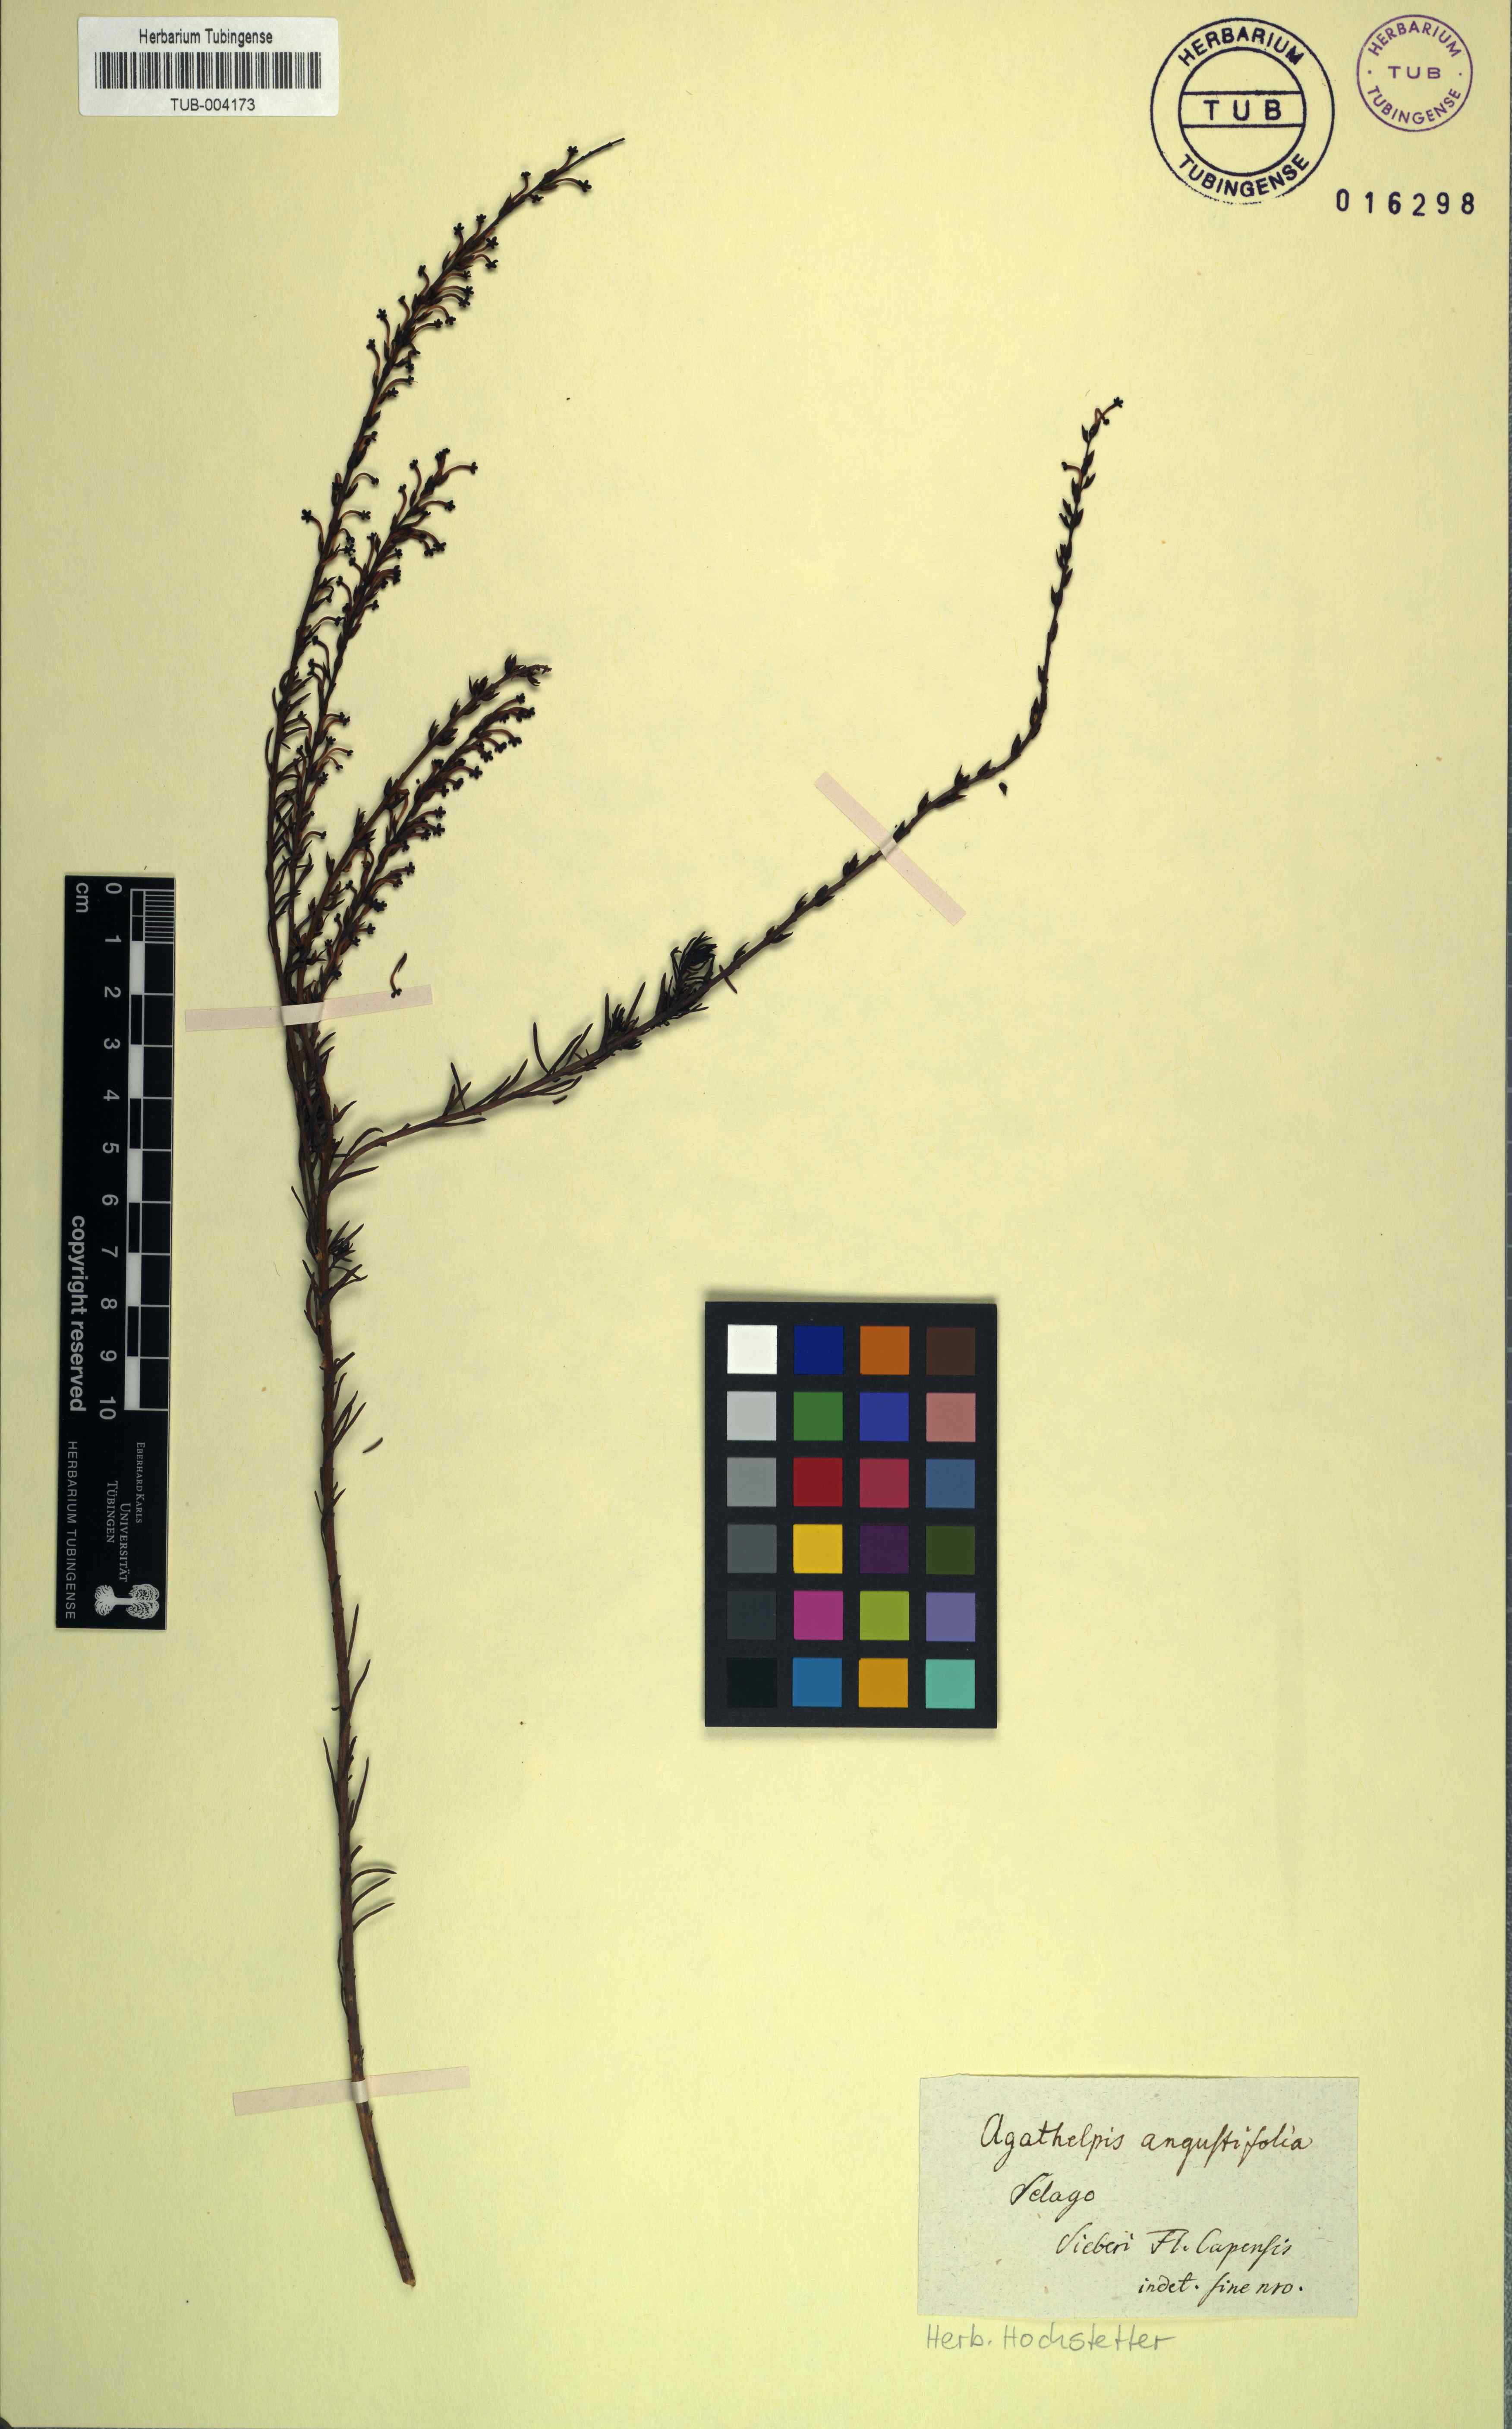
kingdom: Plantae
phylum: Tracheophyta
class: Magnoliopsida
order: Lamiales
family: Scrophulariaceae
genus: Microdon
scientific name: Microdon dubius
